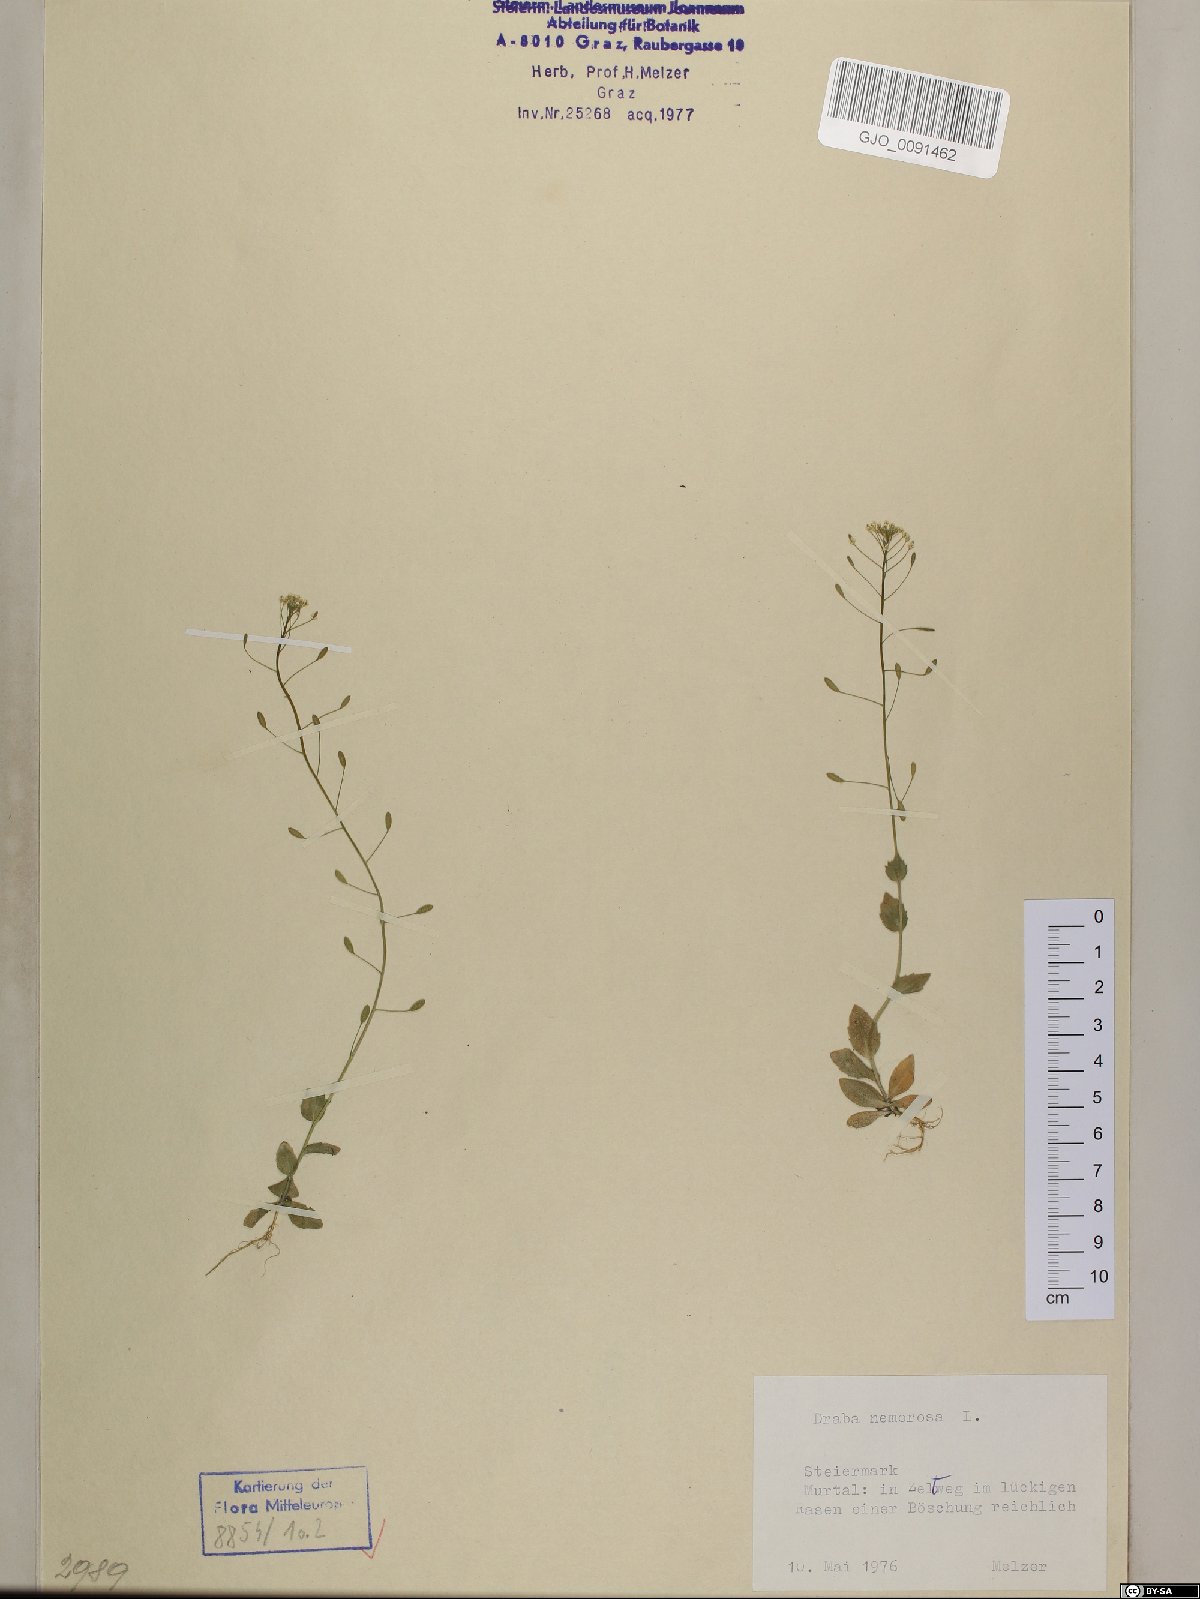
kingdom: Plantae
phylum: Tracheophyta
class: Magnoliopsida
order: Brassicales
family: Brassicaceae
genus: Draba
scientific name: Draba nemorosa
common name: Wood whitlow-grass
